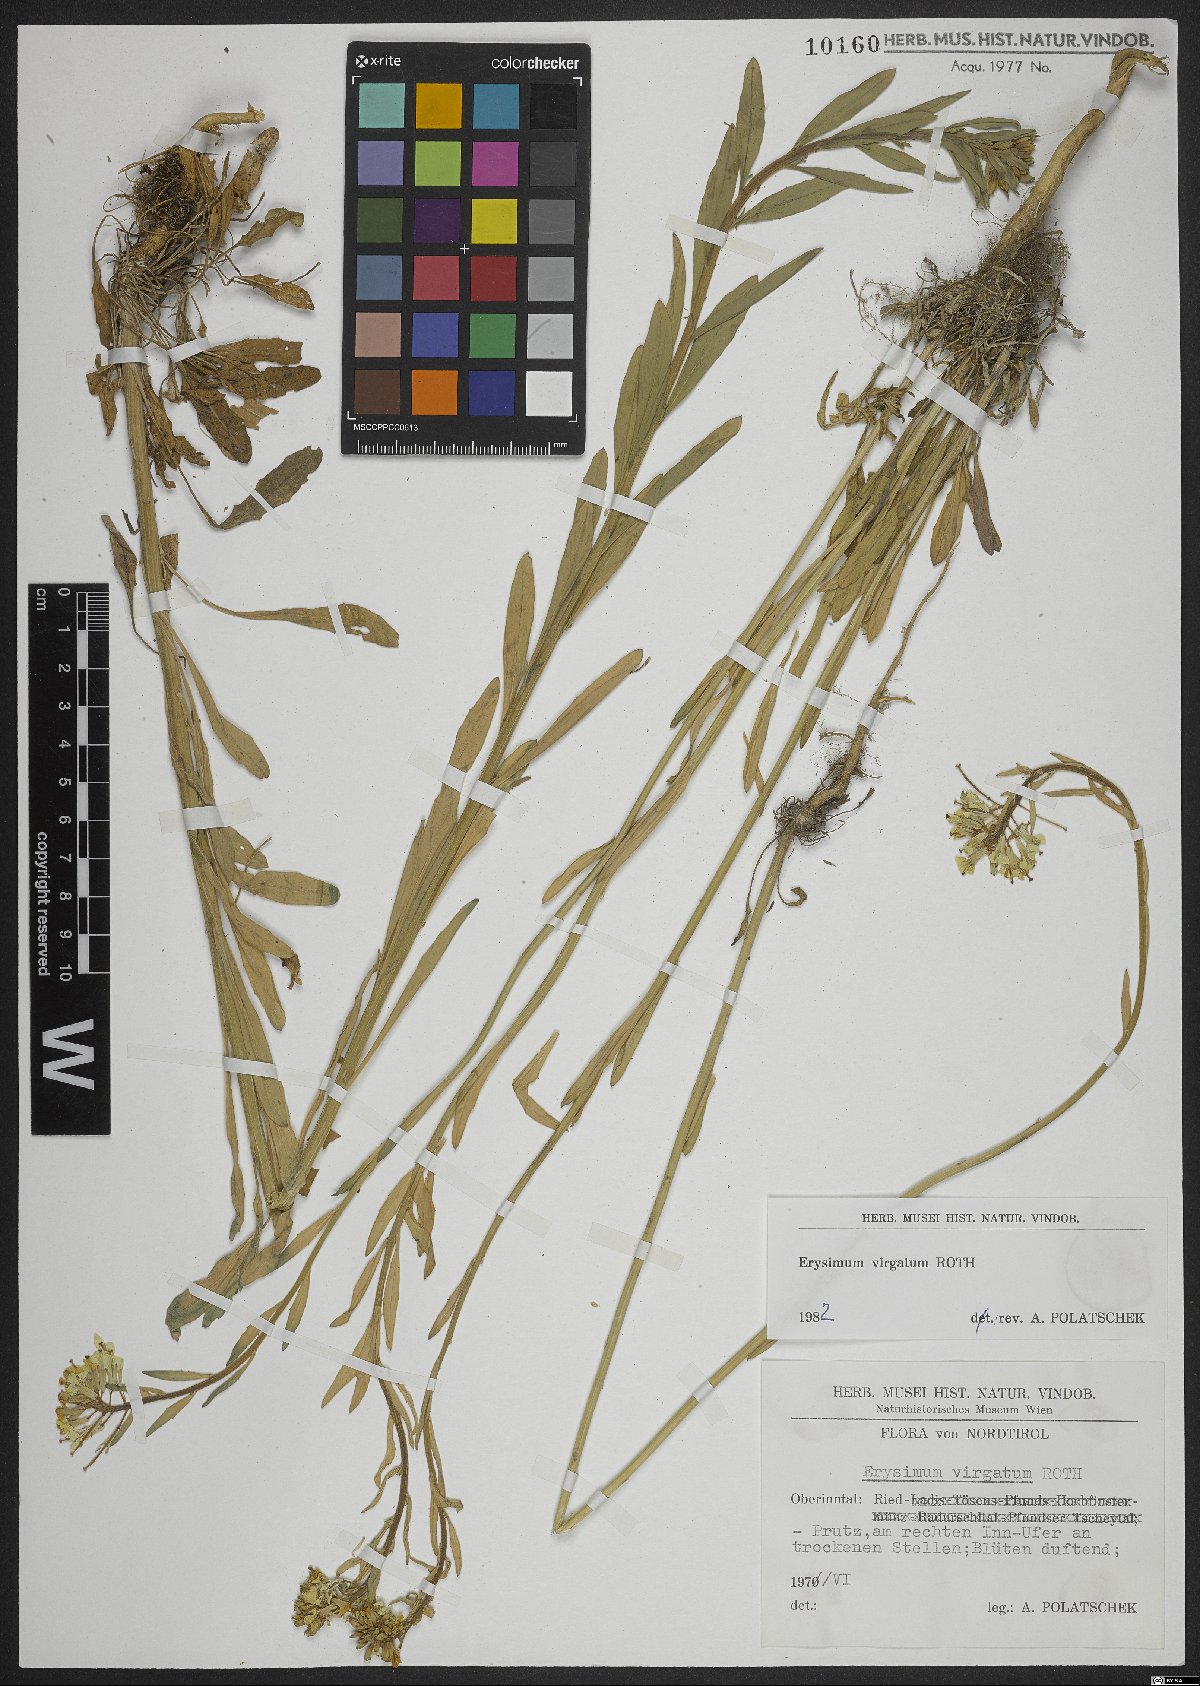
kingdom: Plantae
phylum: Tracheophyta
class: Magnoliopsida
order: Brassicales
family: Brassicaceae
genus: Erysimum
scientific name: Erysimum virgatum
